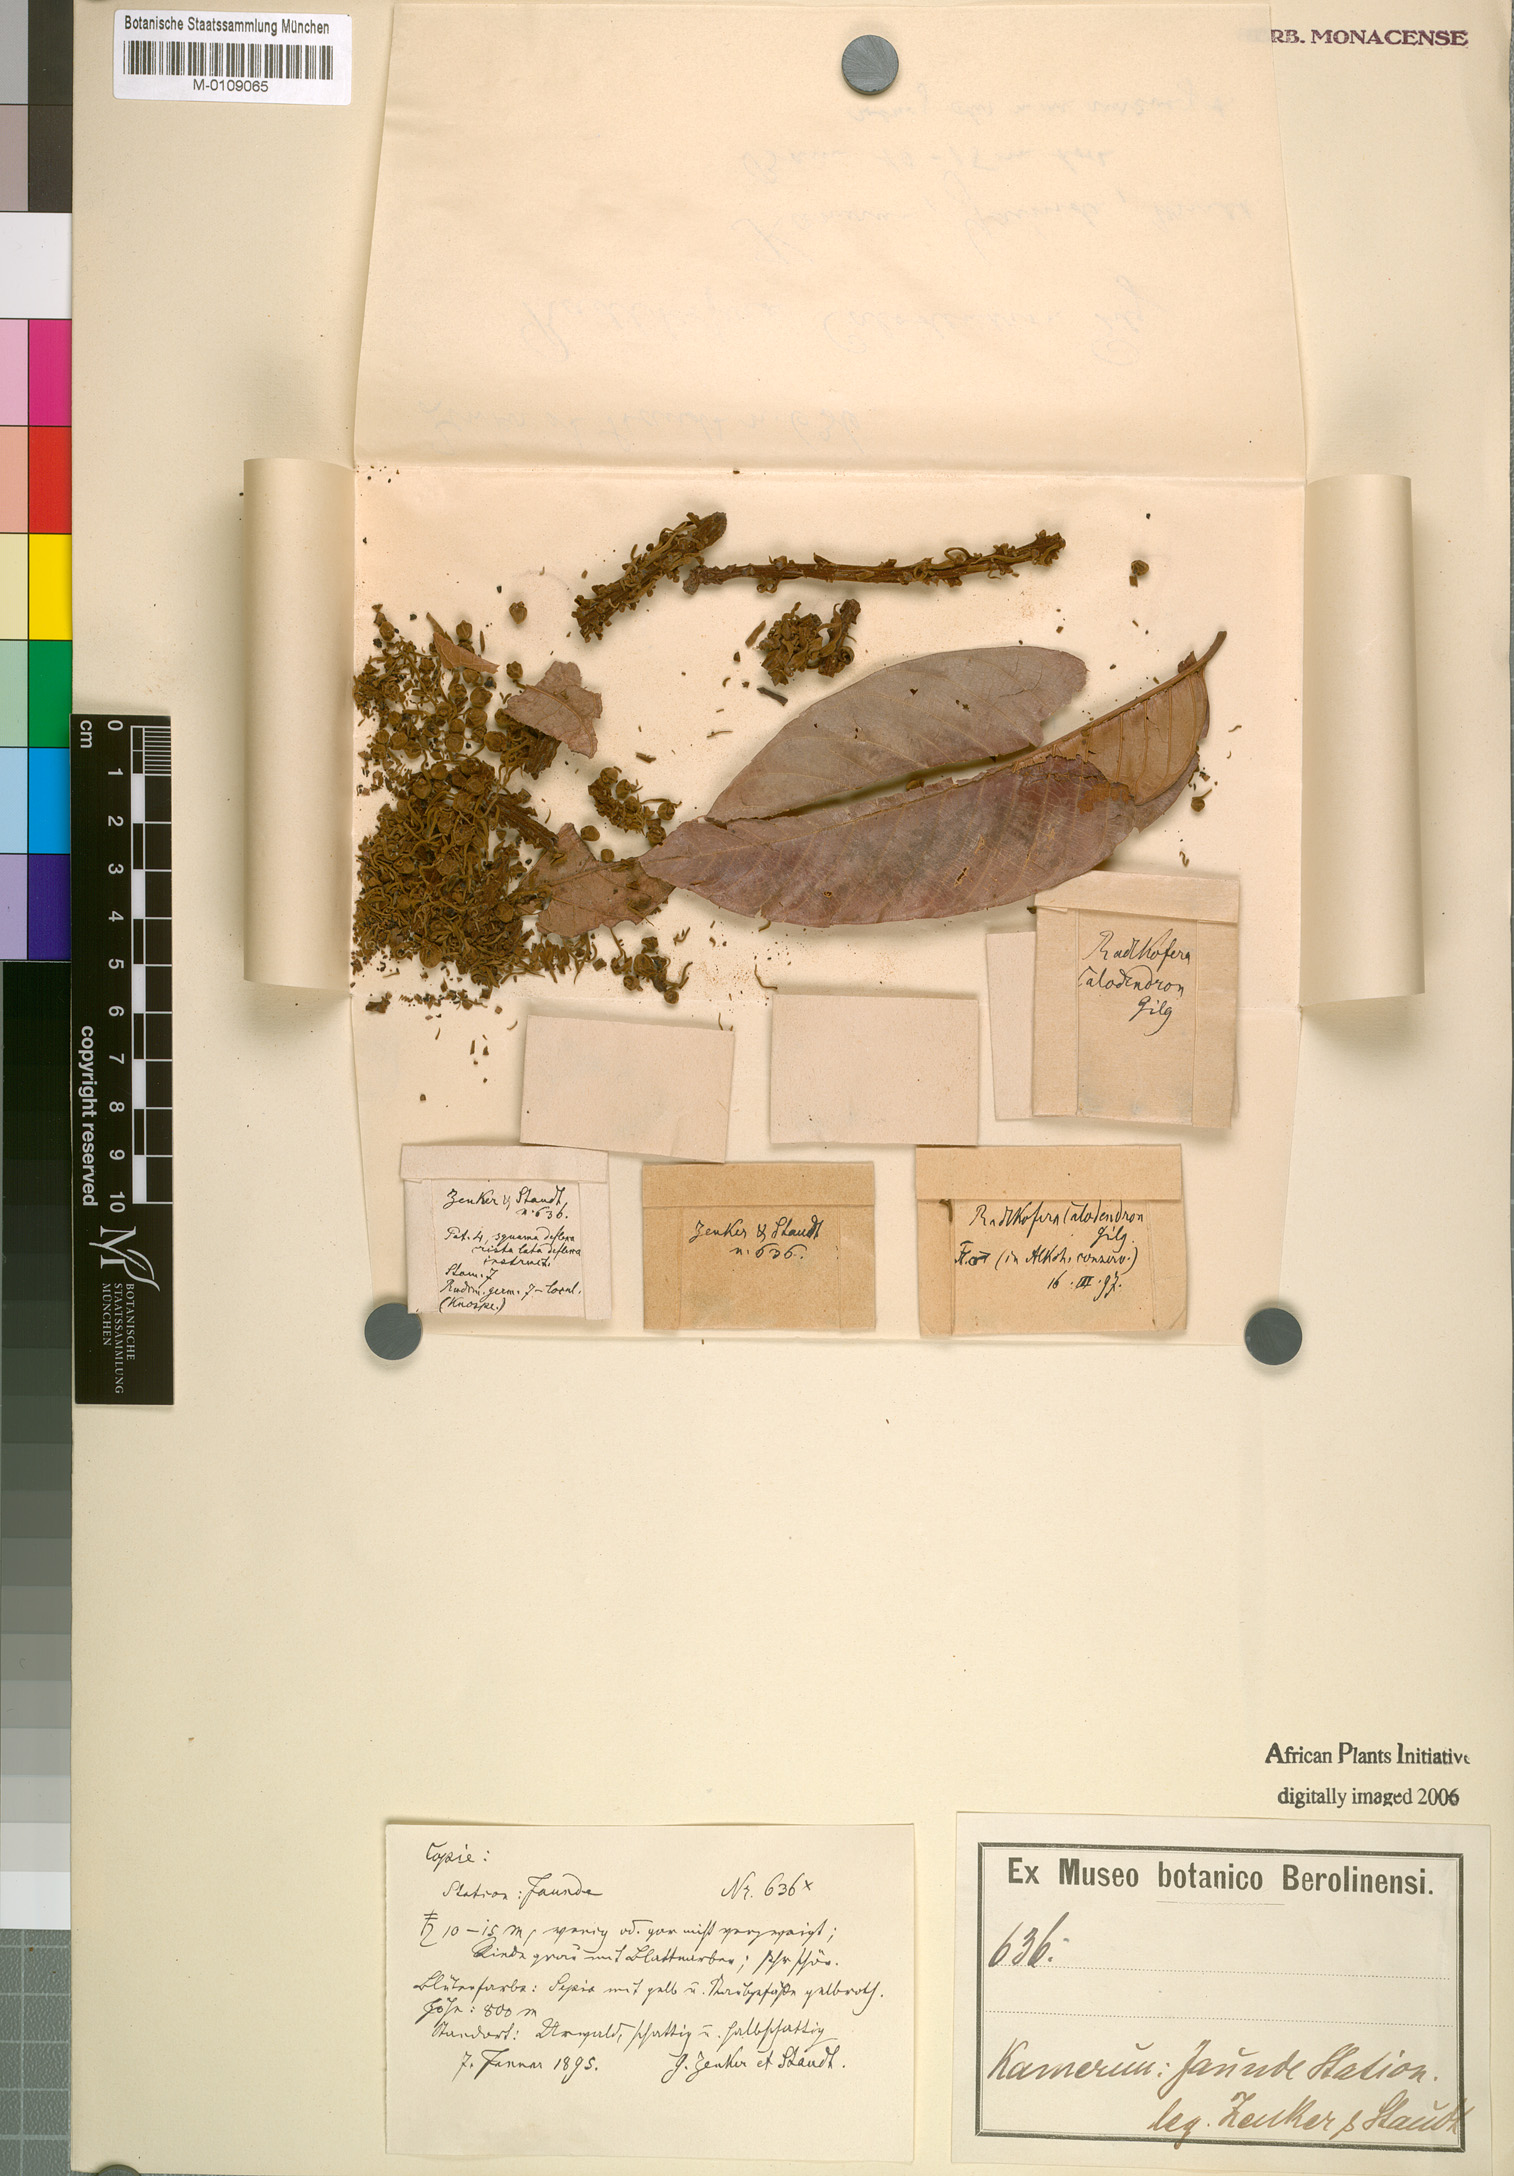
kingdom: Plantae
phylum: Tracheophyta
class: Magnoliopsida
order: Sapindales
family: Sapindaceae
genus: Radlkofera
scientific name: Radlkofera calodendron
